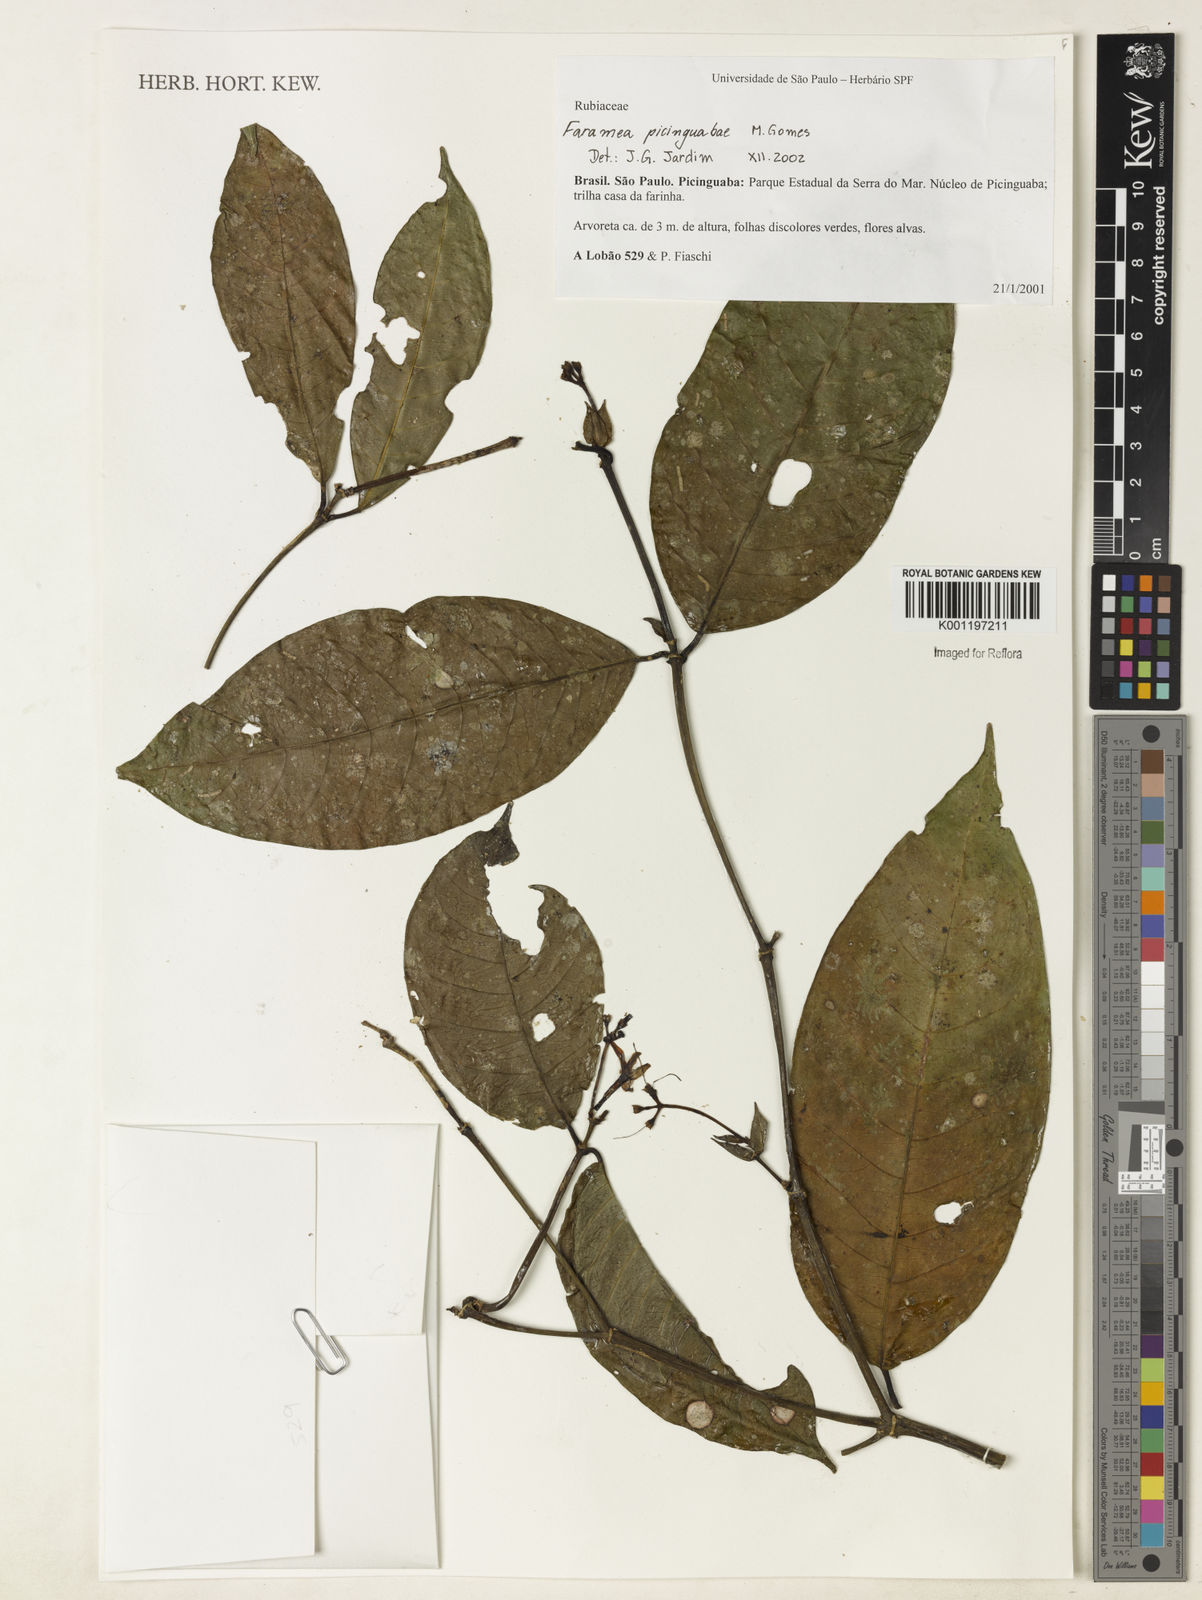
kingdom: Plantae
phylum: Tracheophyta
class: Magnoliopsida
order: Gentianales
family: Rubiaceae
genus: Faramea
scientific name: Faramea picinguabae
